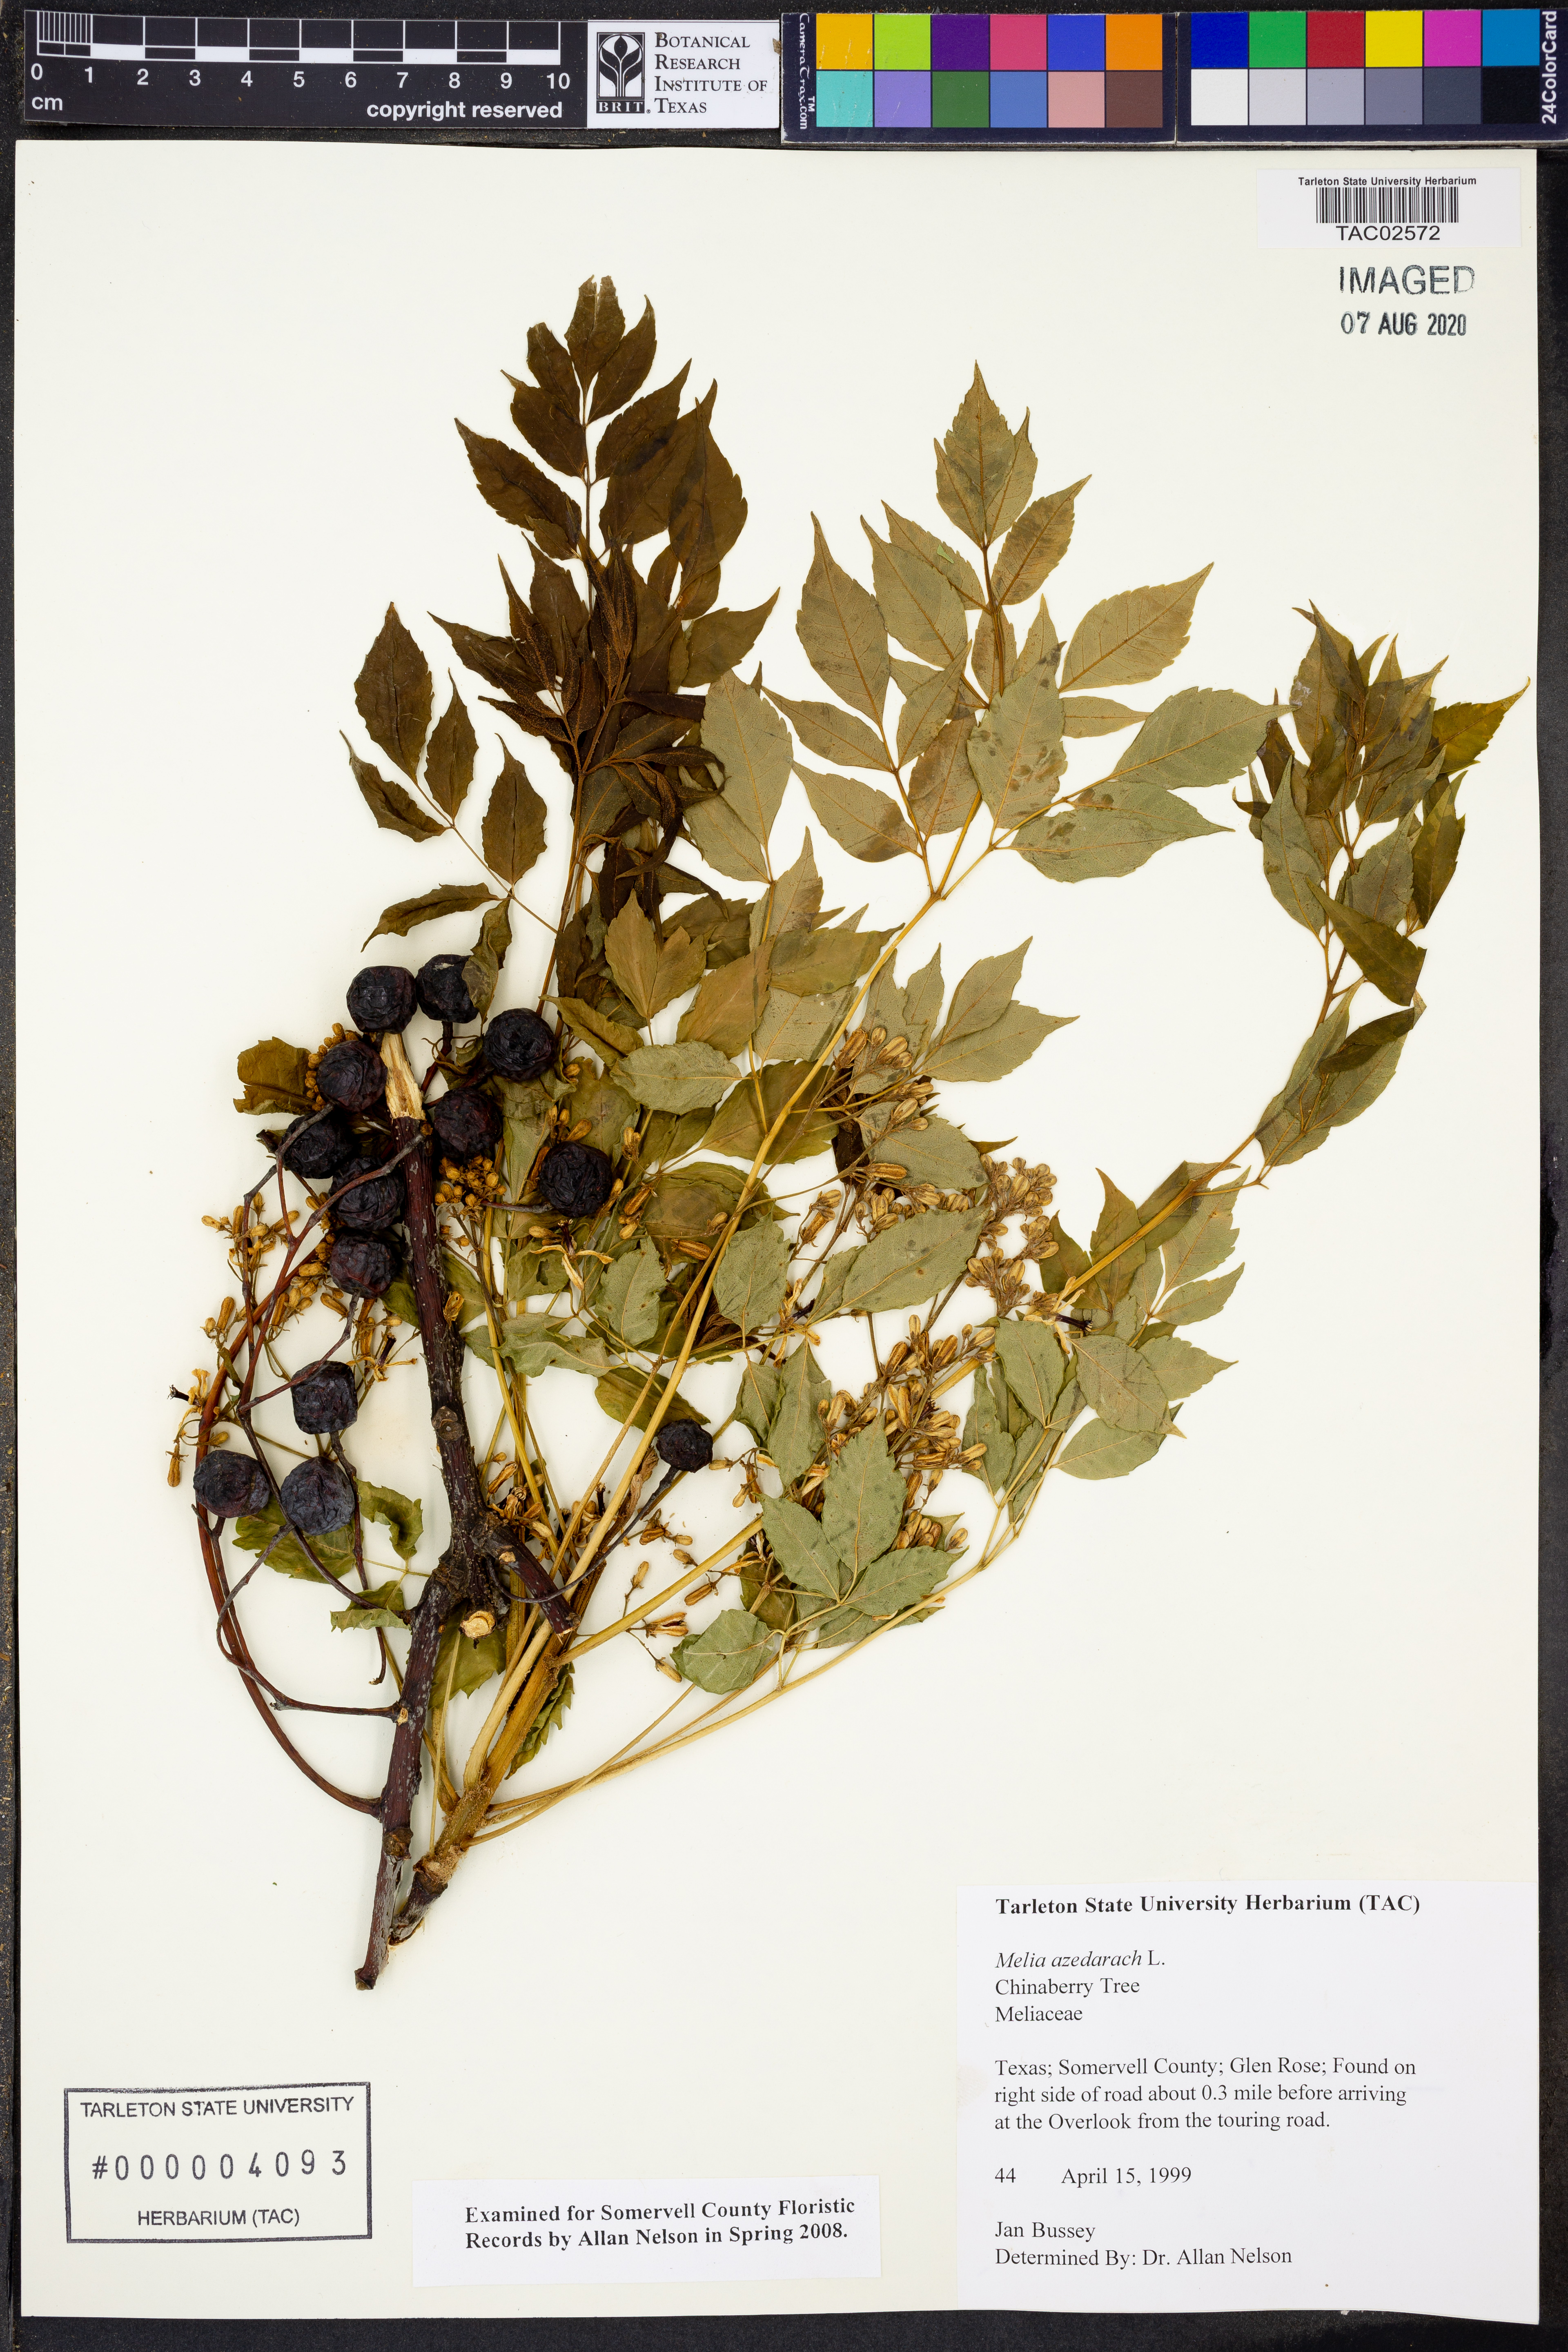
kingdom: Plantae
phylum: Tracheophyta
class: Magnoliopsida
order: Sapindales
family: Meliaceae
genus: Melia
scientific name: Melia azedarach
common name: Chinaberrytree
